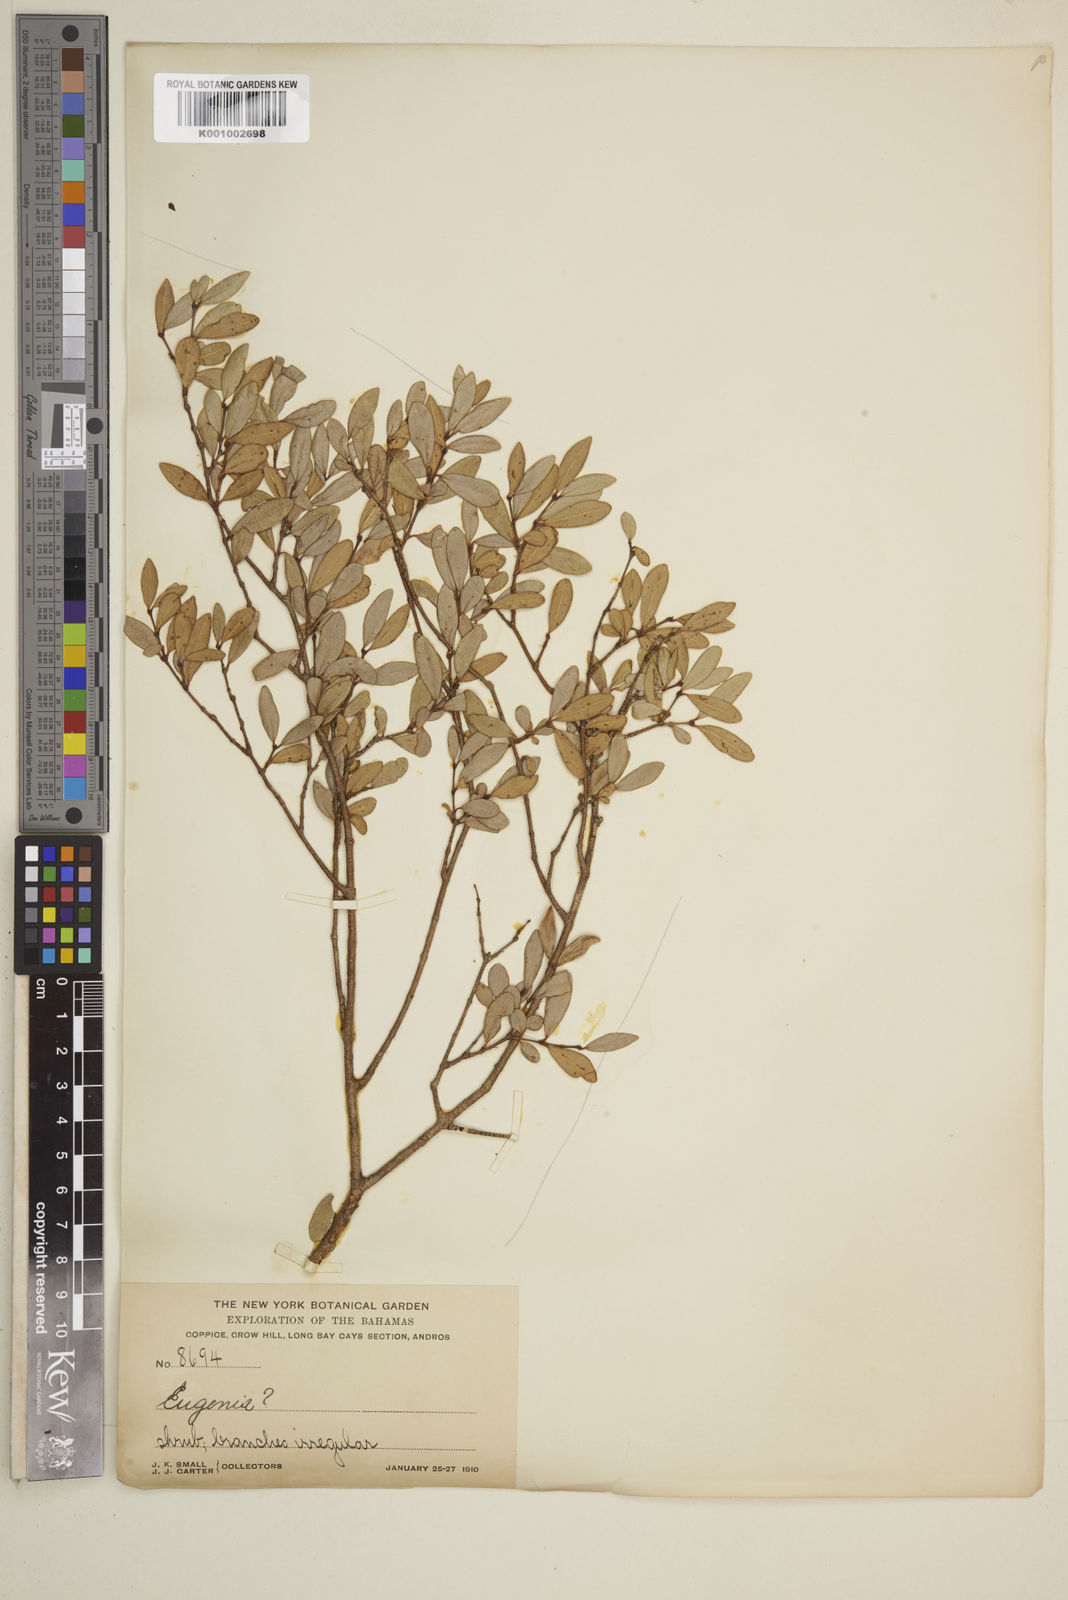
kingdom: Plantae
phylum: Tracheophyta
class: Magnoliopsida
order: Myrtales
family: Myrtaceae
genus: Eugenia
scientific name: Eugenia
